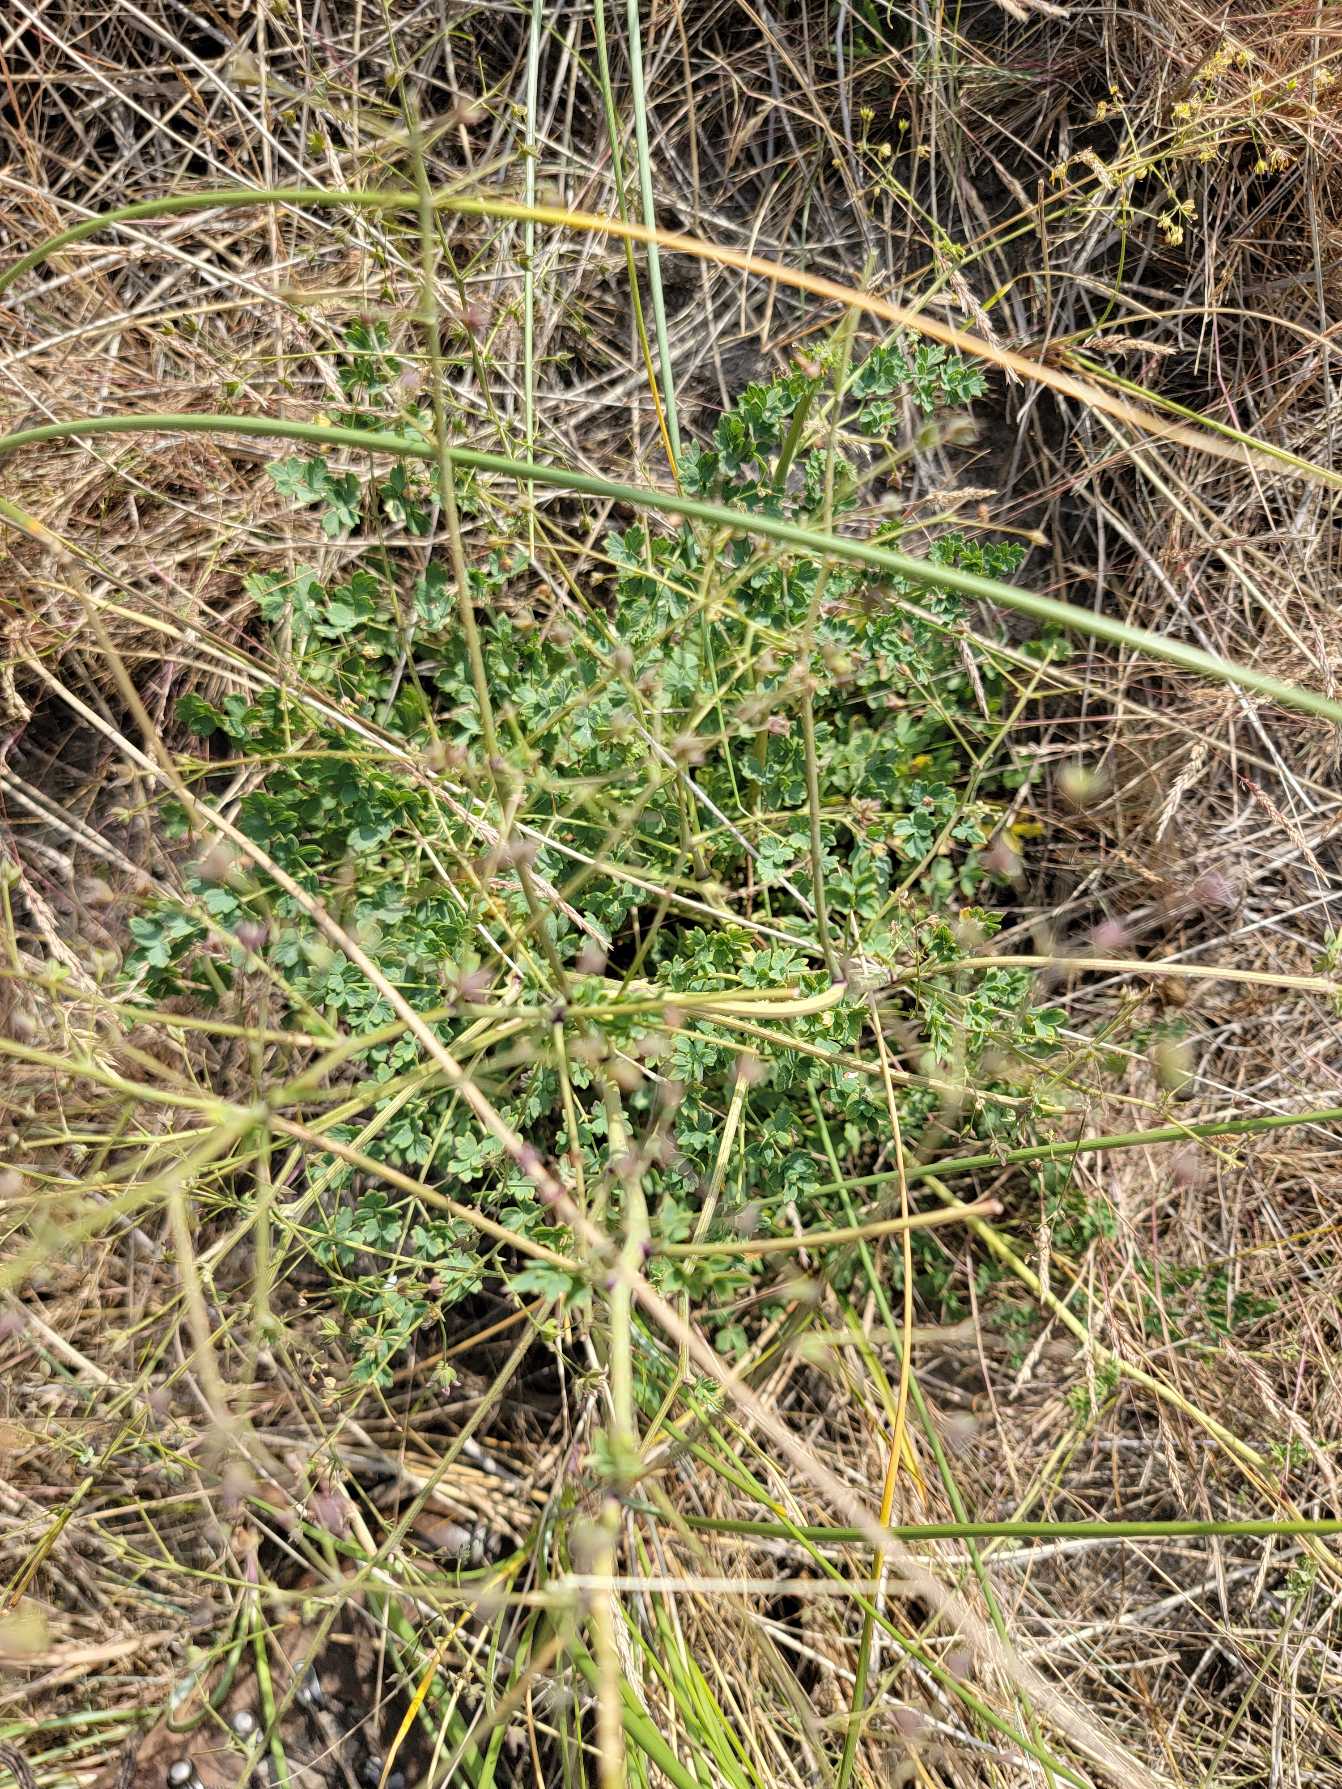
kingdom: Plantae
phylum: Tracheophyta
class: Magnoliopsida
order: Ranunculales
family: Ranunculaceae
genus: Thalictrum
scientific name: Thalictrum minus
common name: Sand-frøstjerne
